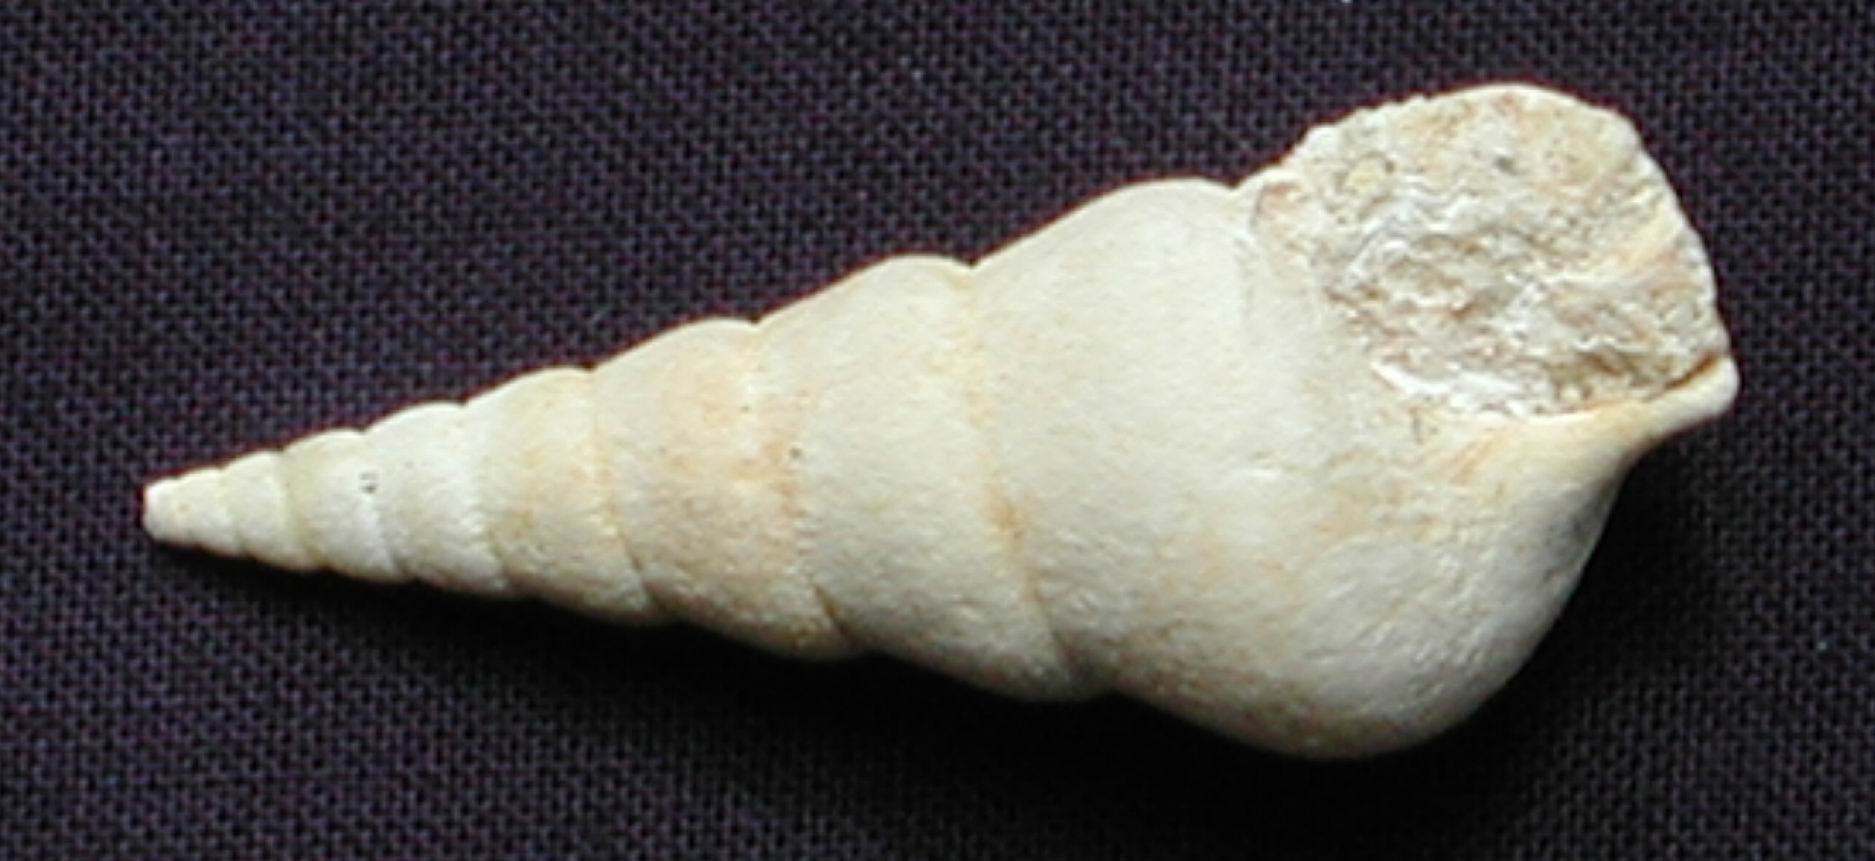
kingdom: Animalia
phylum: Mollusca
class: Gastropoda
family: Pseudomelaniidae
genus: Bourgetia
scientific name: Bourgetia Turritella deshayesea
